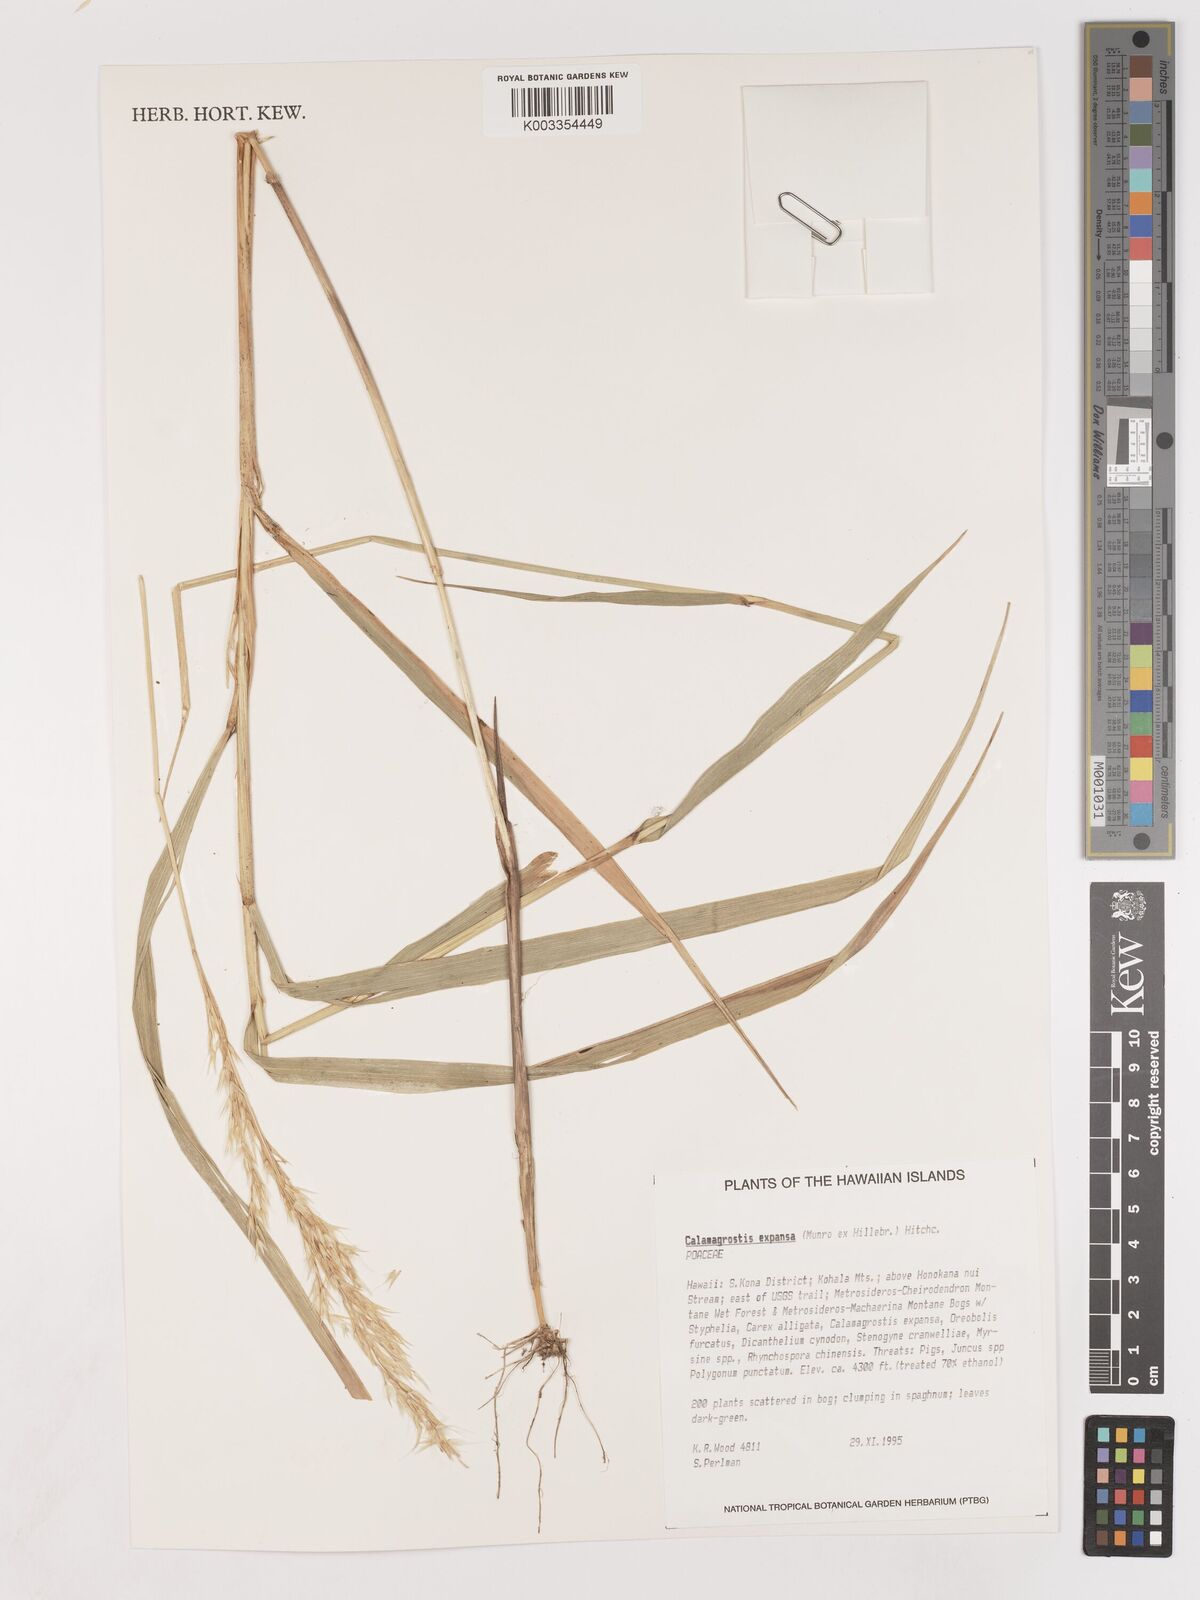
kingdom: Plantae
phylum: Tracheophyta
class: Liliopsida
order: Poales
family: Poaceae
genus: Calamagrostis
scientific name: Calamagrostis expansa
